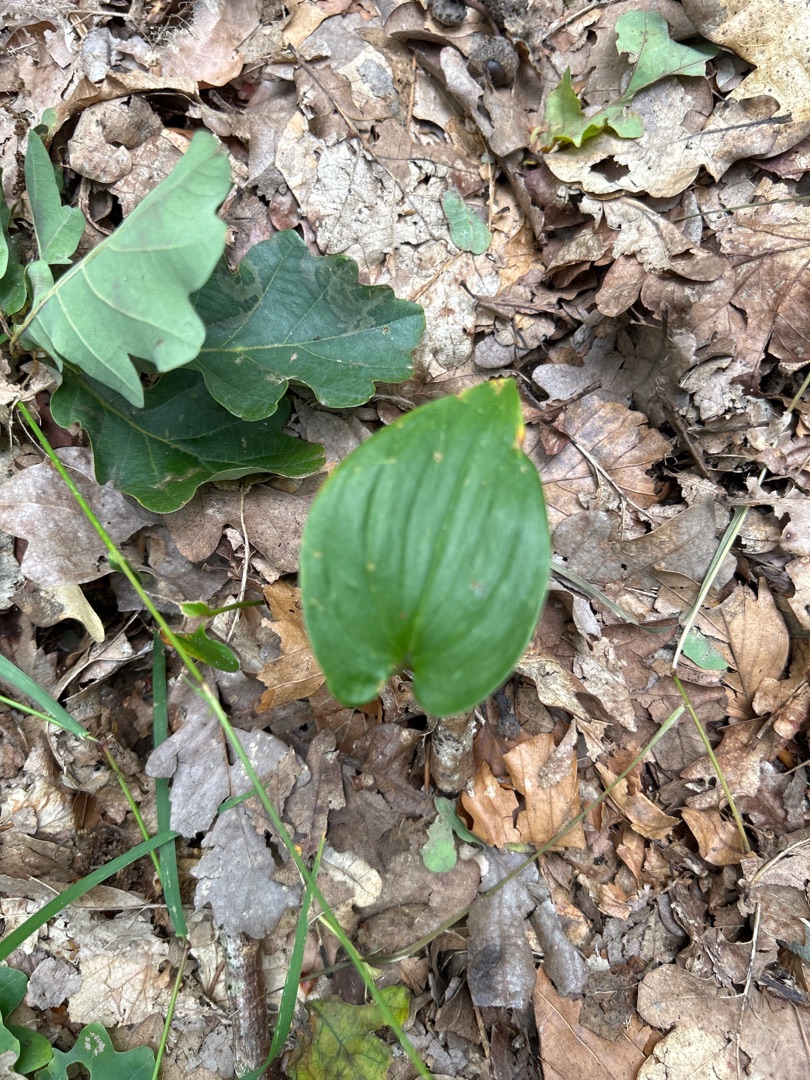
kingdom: Plantae
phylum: Tracheophyta
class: Liliopsida
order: Asparagales
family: Asparagaceae
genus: Maianthemum
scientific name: Maianthemum bifolium
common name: Majblomst
